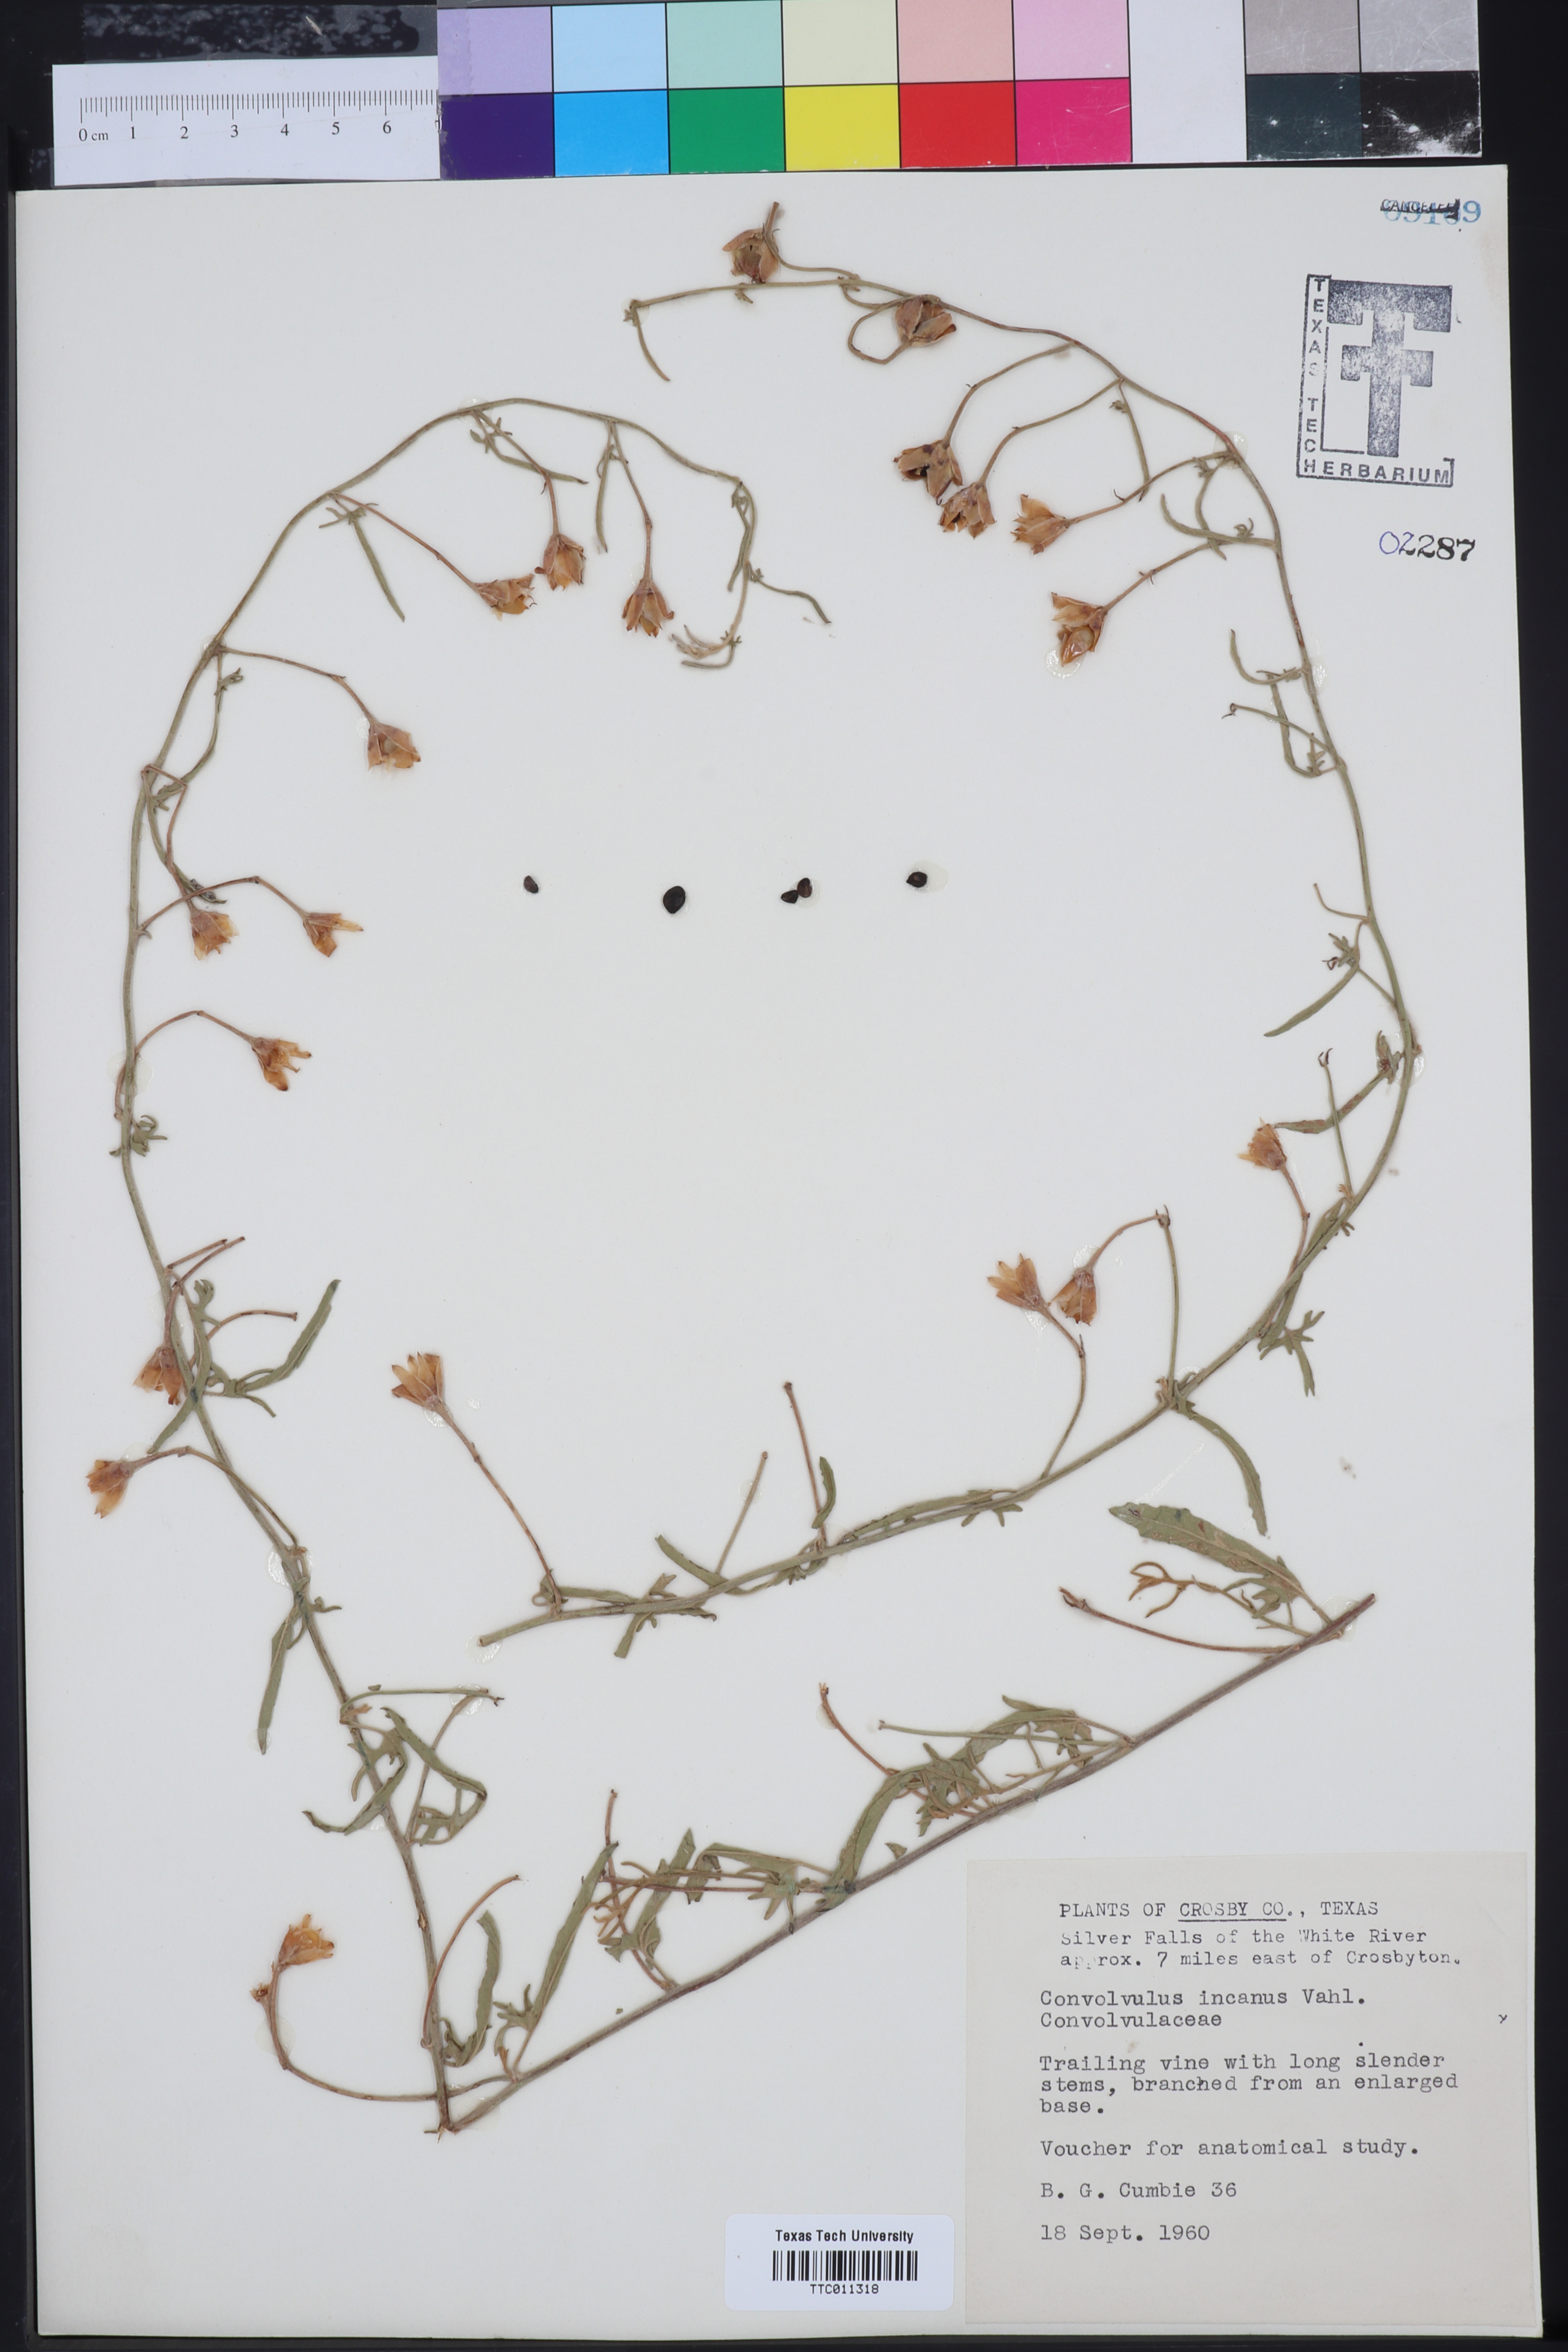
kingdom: Plantae
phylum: Tracheophyta
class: Magnoliopsida
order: Solanales
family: Convolvulaceae
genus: Convolvulus
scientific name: Convolvulus hermanniae
